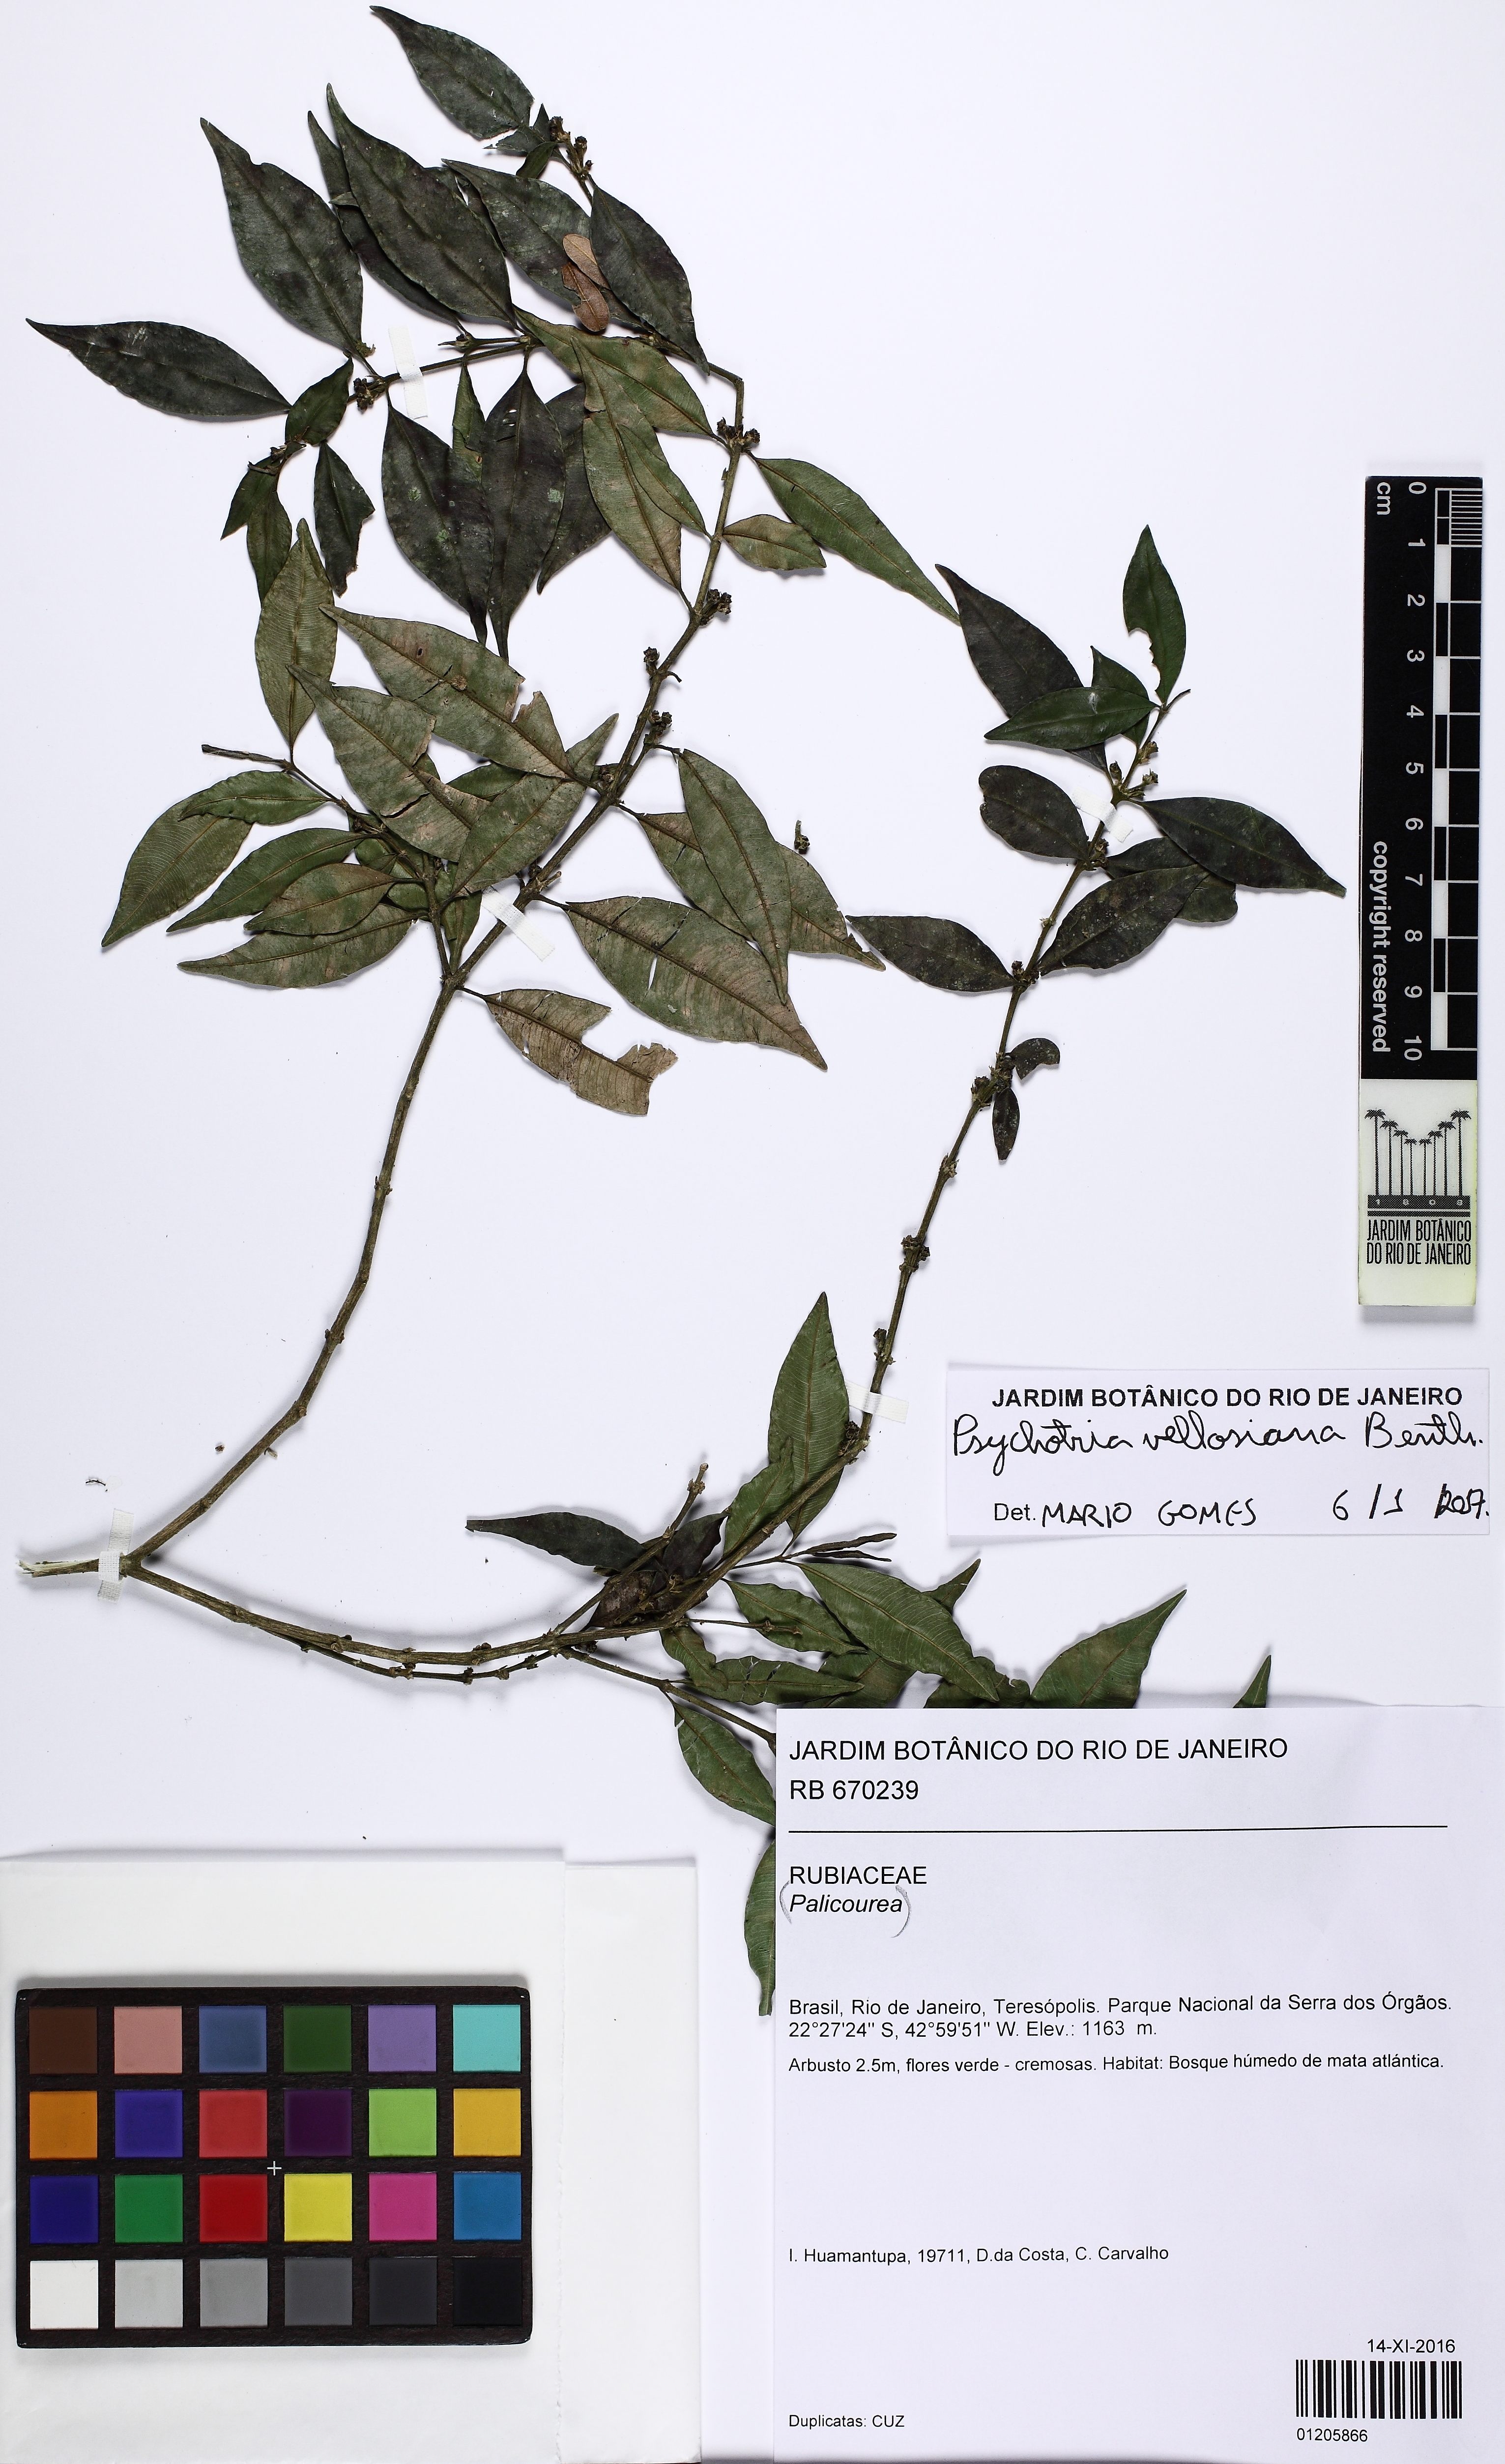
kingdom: Plantae
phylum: Tracheophyta
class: Magnoliopsida
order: Gentianales
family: Rubiaceae
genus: Palicourea
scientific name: Palicourea sessilis
